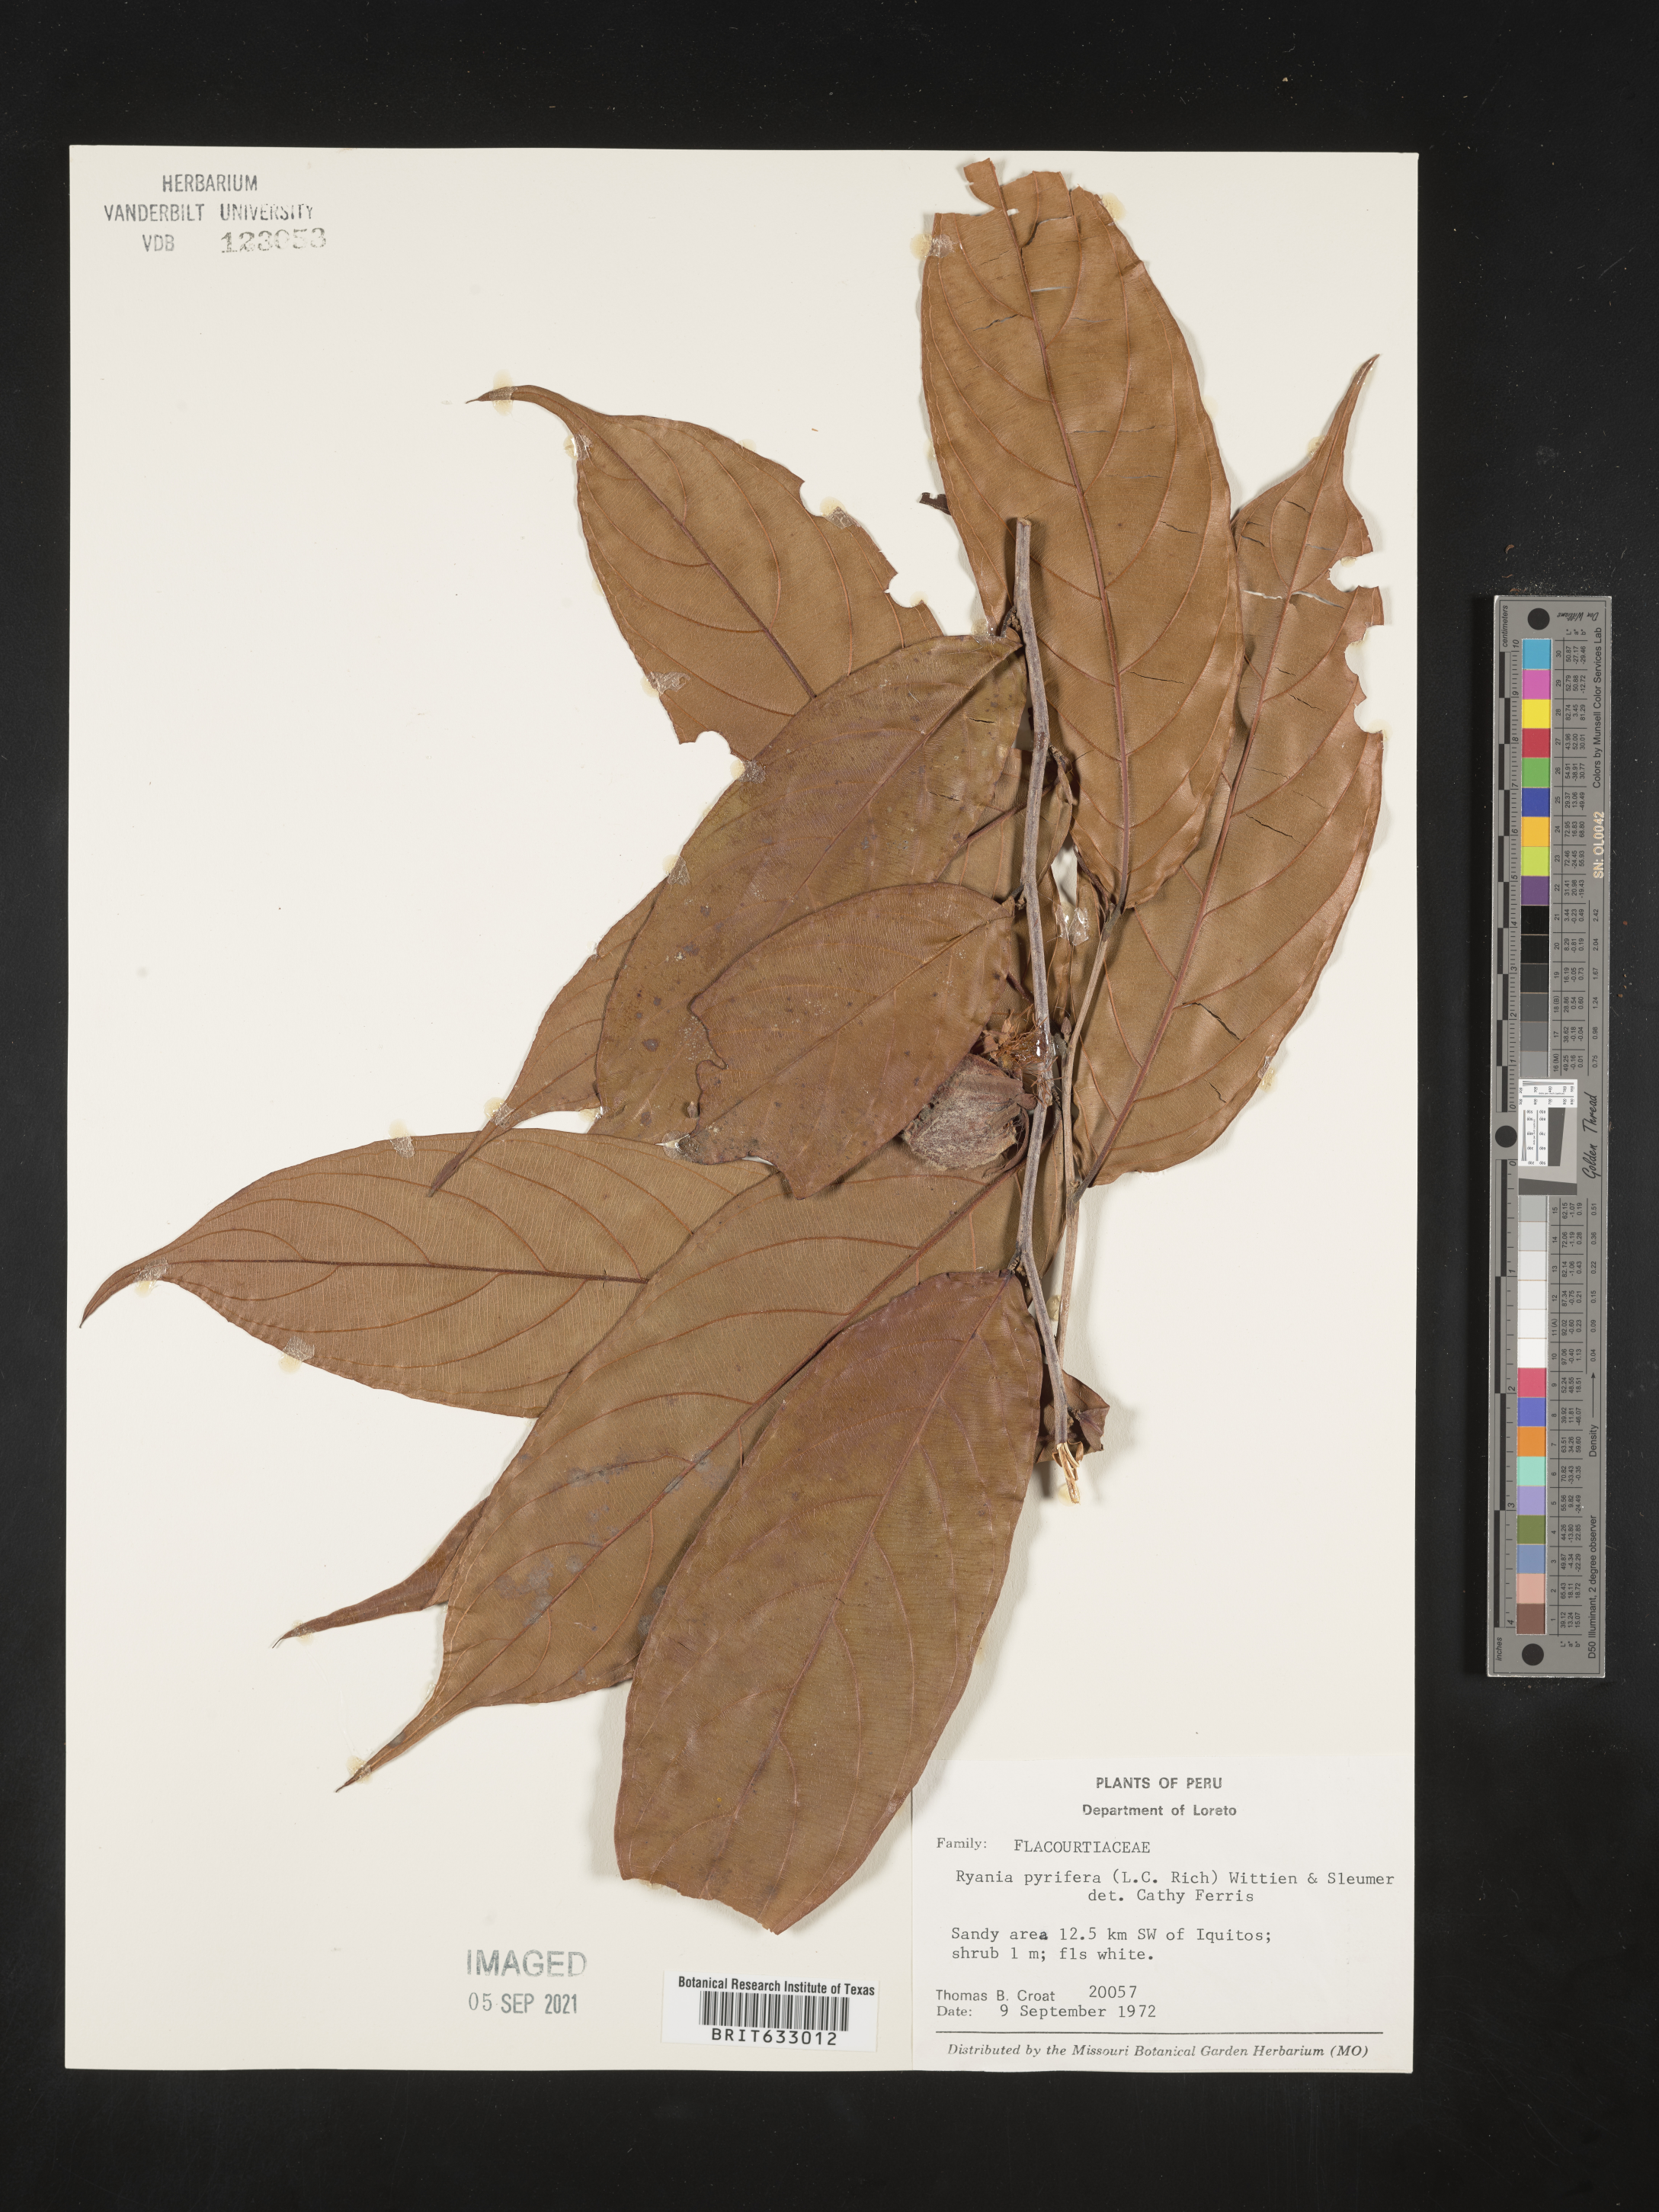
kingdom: Plantae
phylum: Tracheophyta
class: Magnoliopsida
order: Malpighiales
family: Salicaceae
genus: Ryania
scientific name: Ryania
